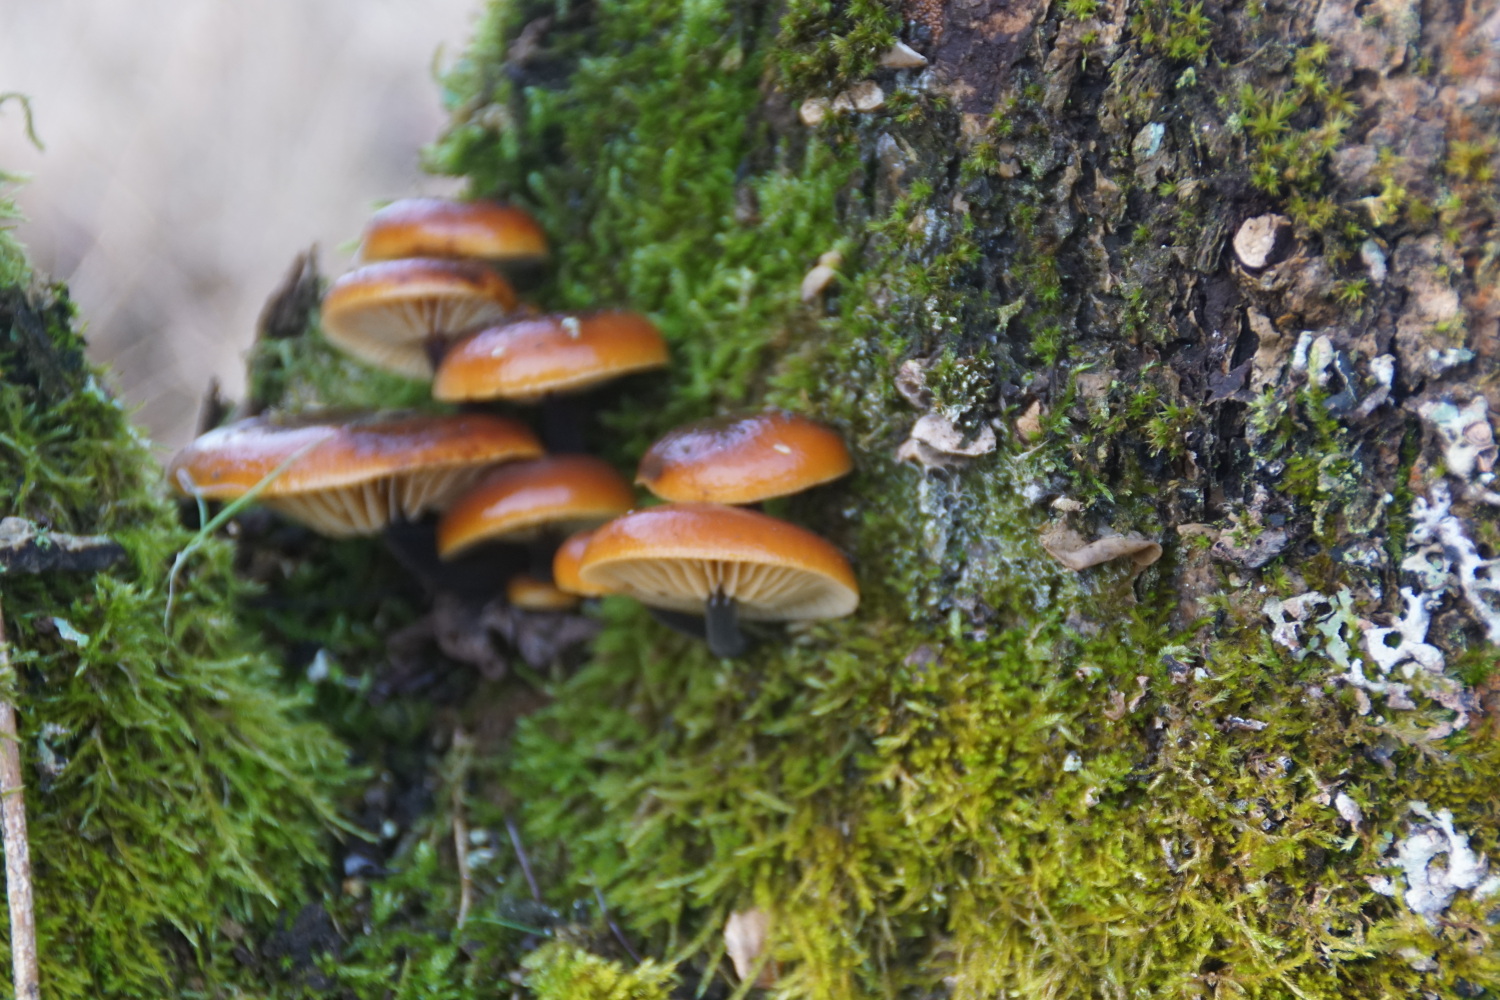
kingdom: Fungi
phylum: Basidiomycota
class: Agaricomycetes
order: Agaricales
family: Physalacriaceae
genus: Flammulina
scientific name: Flammulina velutipes
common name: gul fløjlsfod
